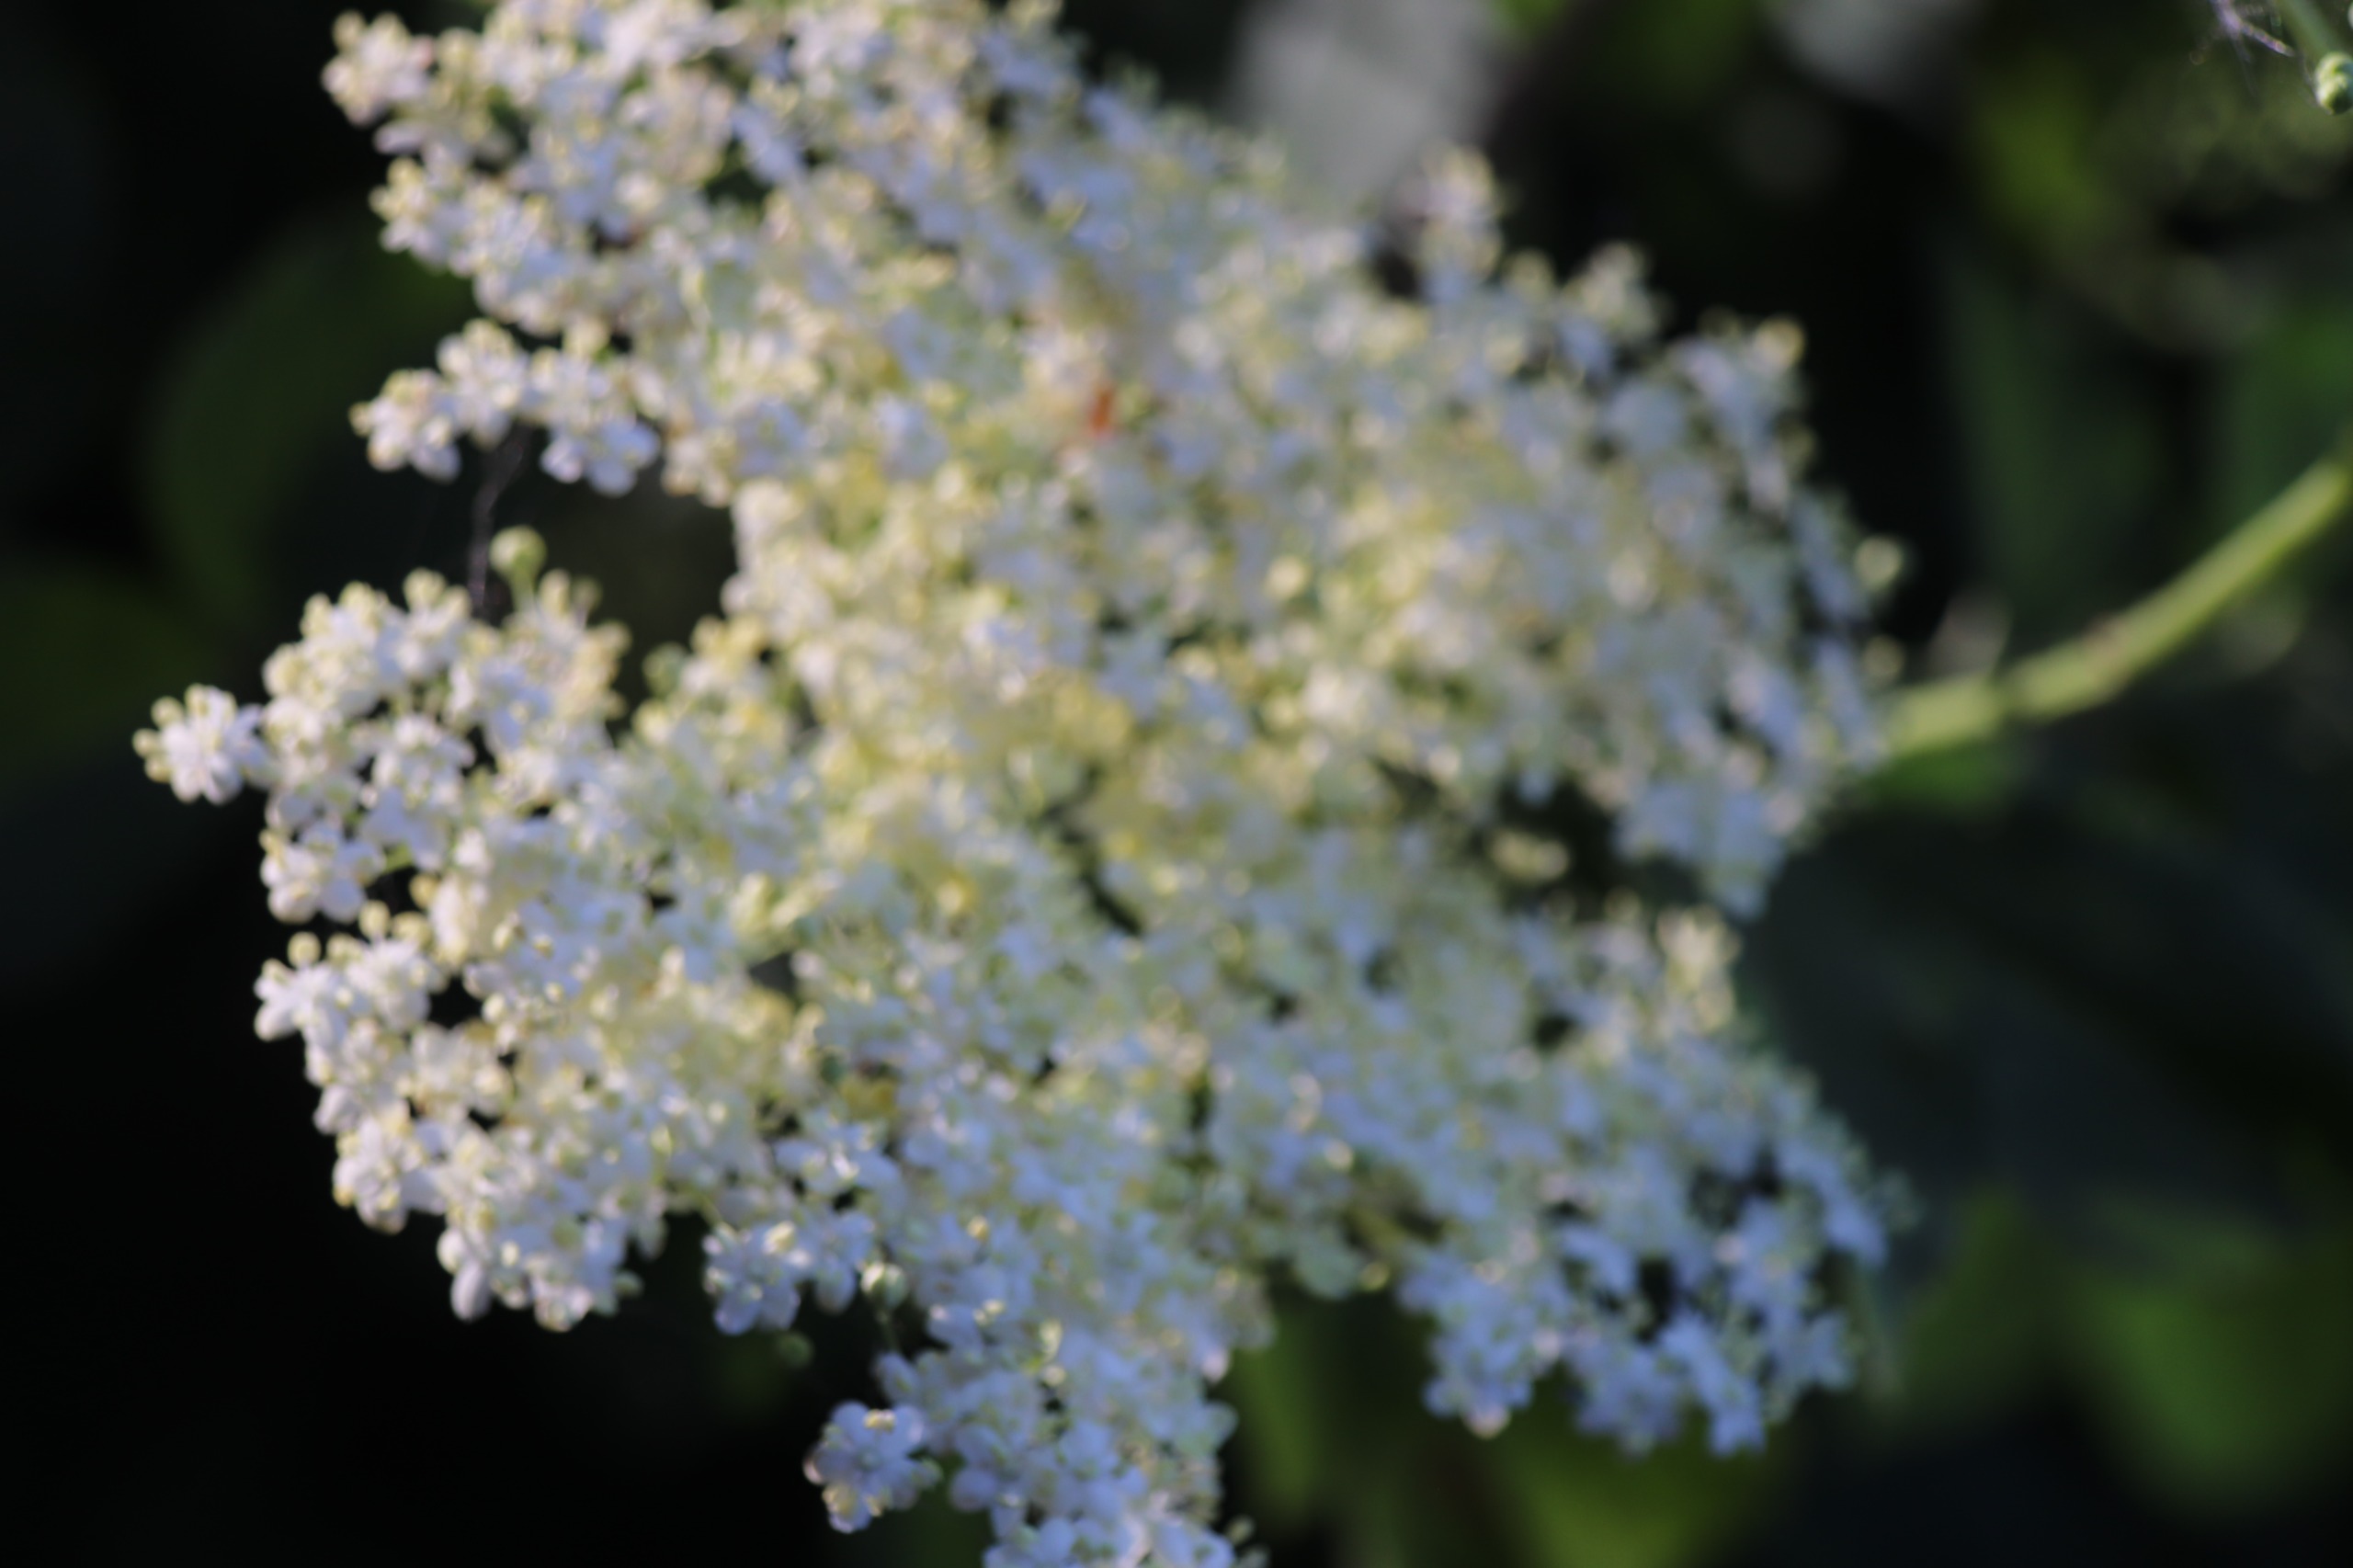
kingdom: Plantae
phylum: Tracheophyta
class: Magnoliopsida
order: Dipsacales
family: Viburnaceae
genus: Sambucus
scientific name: Sambucus nigra
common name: Almindelig hyld
